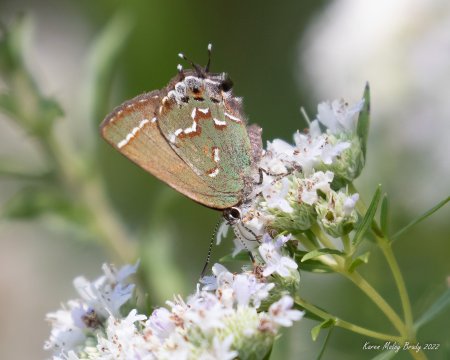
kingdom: Animalia
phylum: Arthropoda
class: Insecta
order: Lepidoptera
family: Lycaenidae
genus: Mitoura
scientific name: Mitoura gryneus
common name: Juniper Hairstreak
